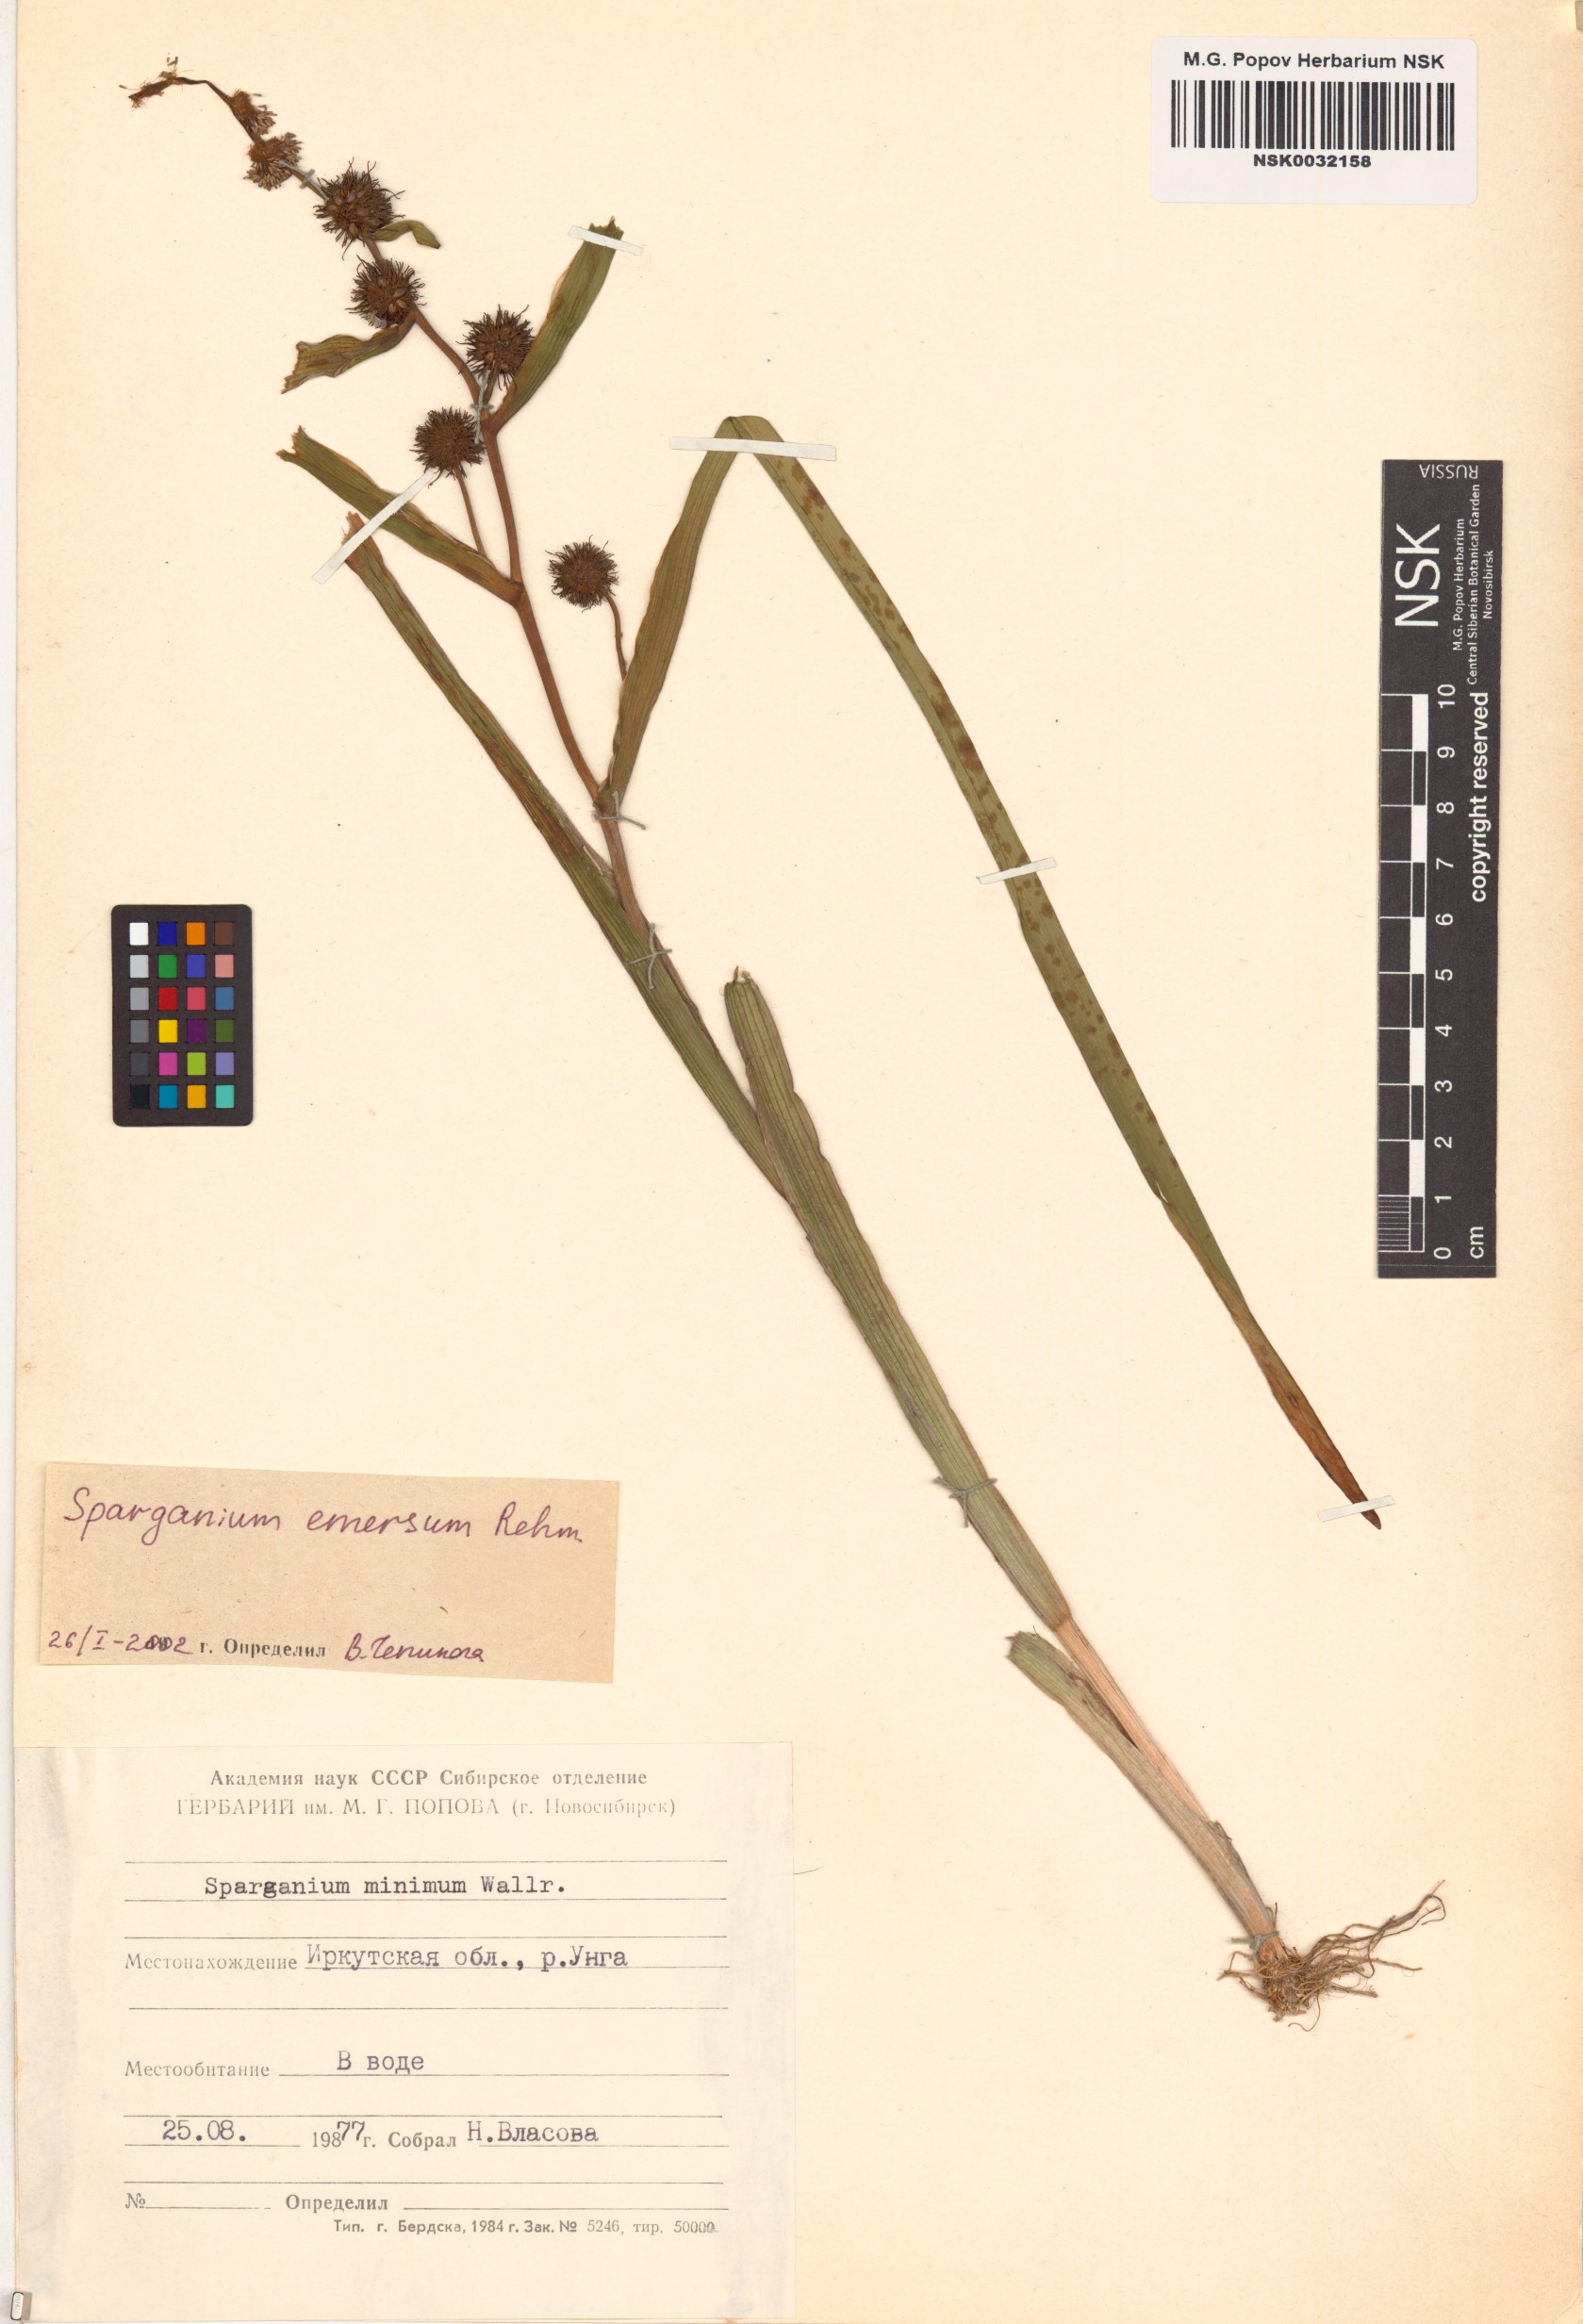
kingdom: Plantae
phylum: Tracheophyta
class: Liliopsida
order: Poales
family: Typhaceae
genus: Sparganium
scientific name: Sparganium emersum
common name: Unbranched bur-reed
